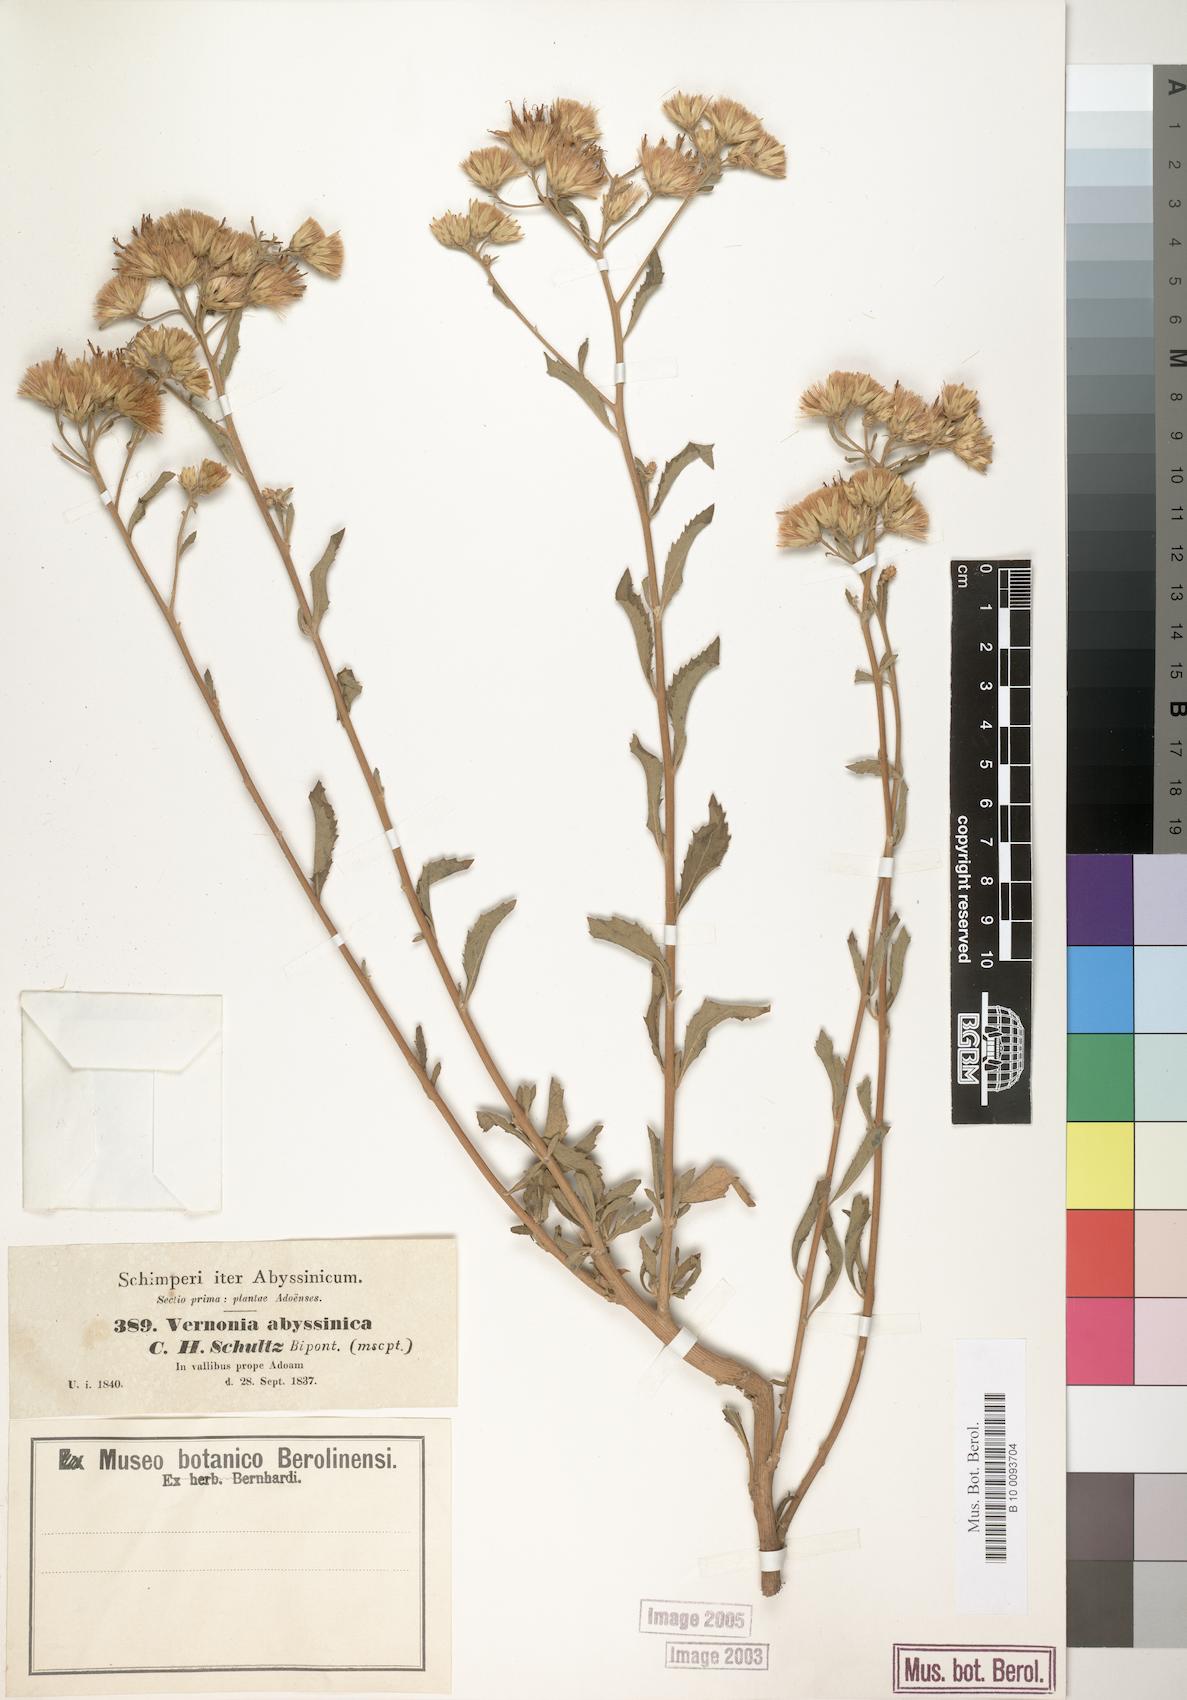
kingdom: Plantae
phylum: Tracheophyta
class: Magnoliopsida
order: Asterales
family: Asteraceae
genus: Baccharoides
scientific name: Baccharoides schimperi
